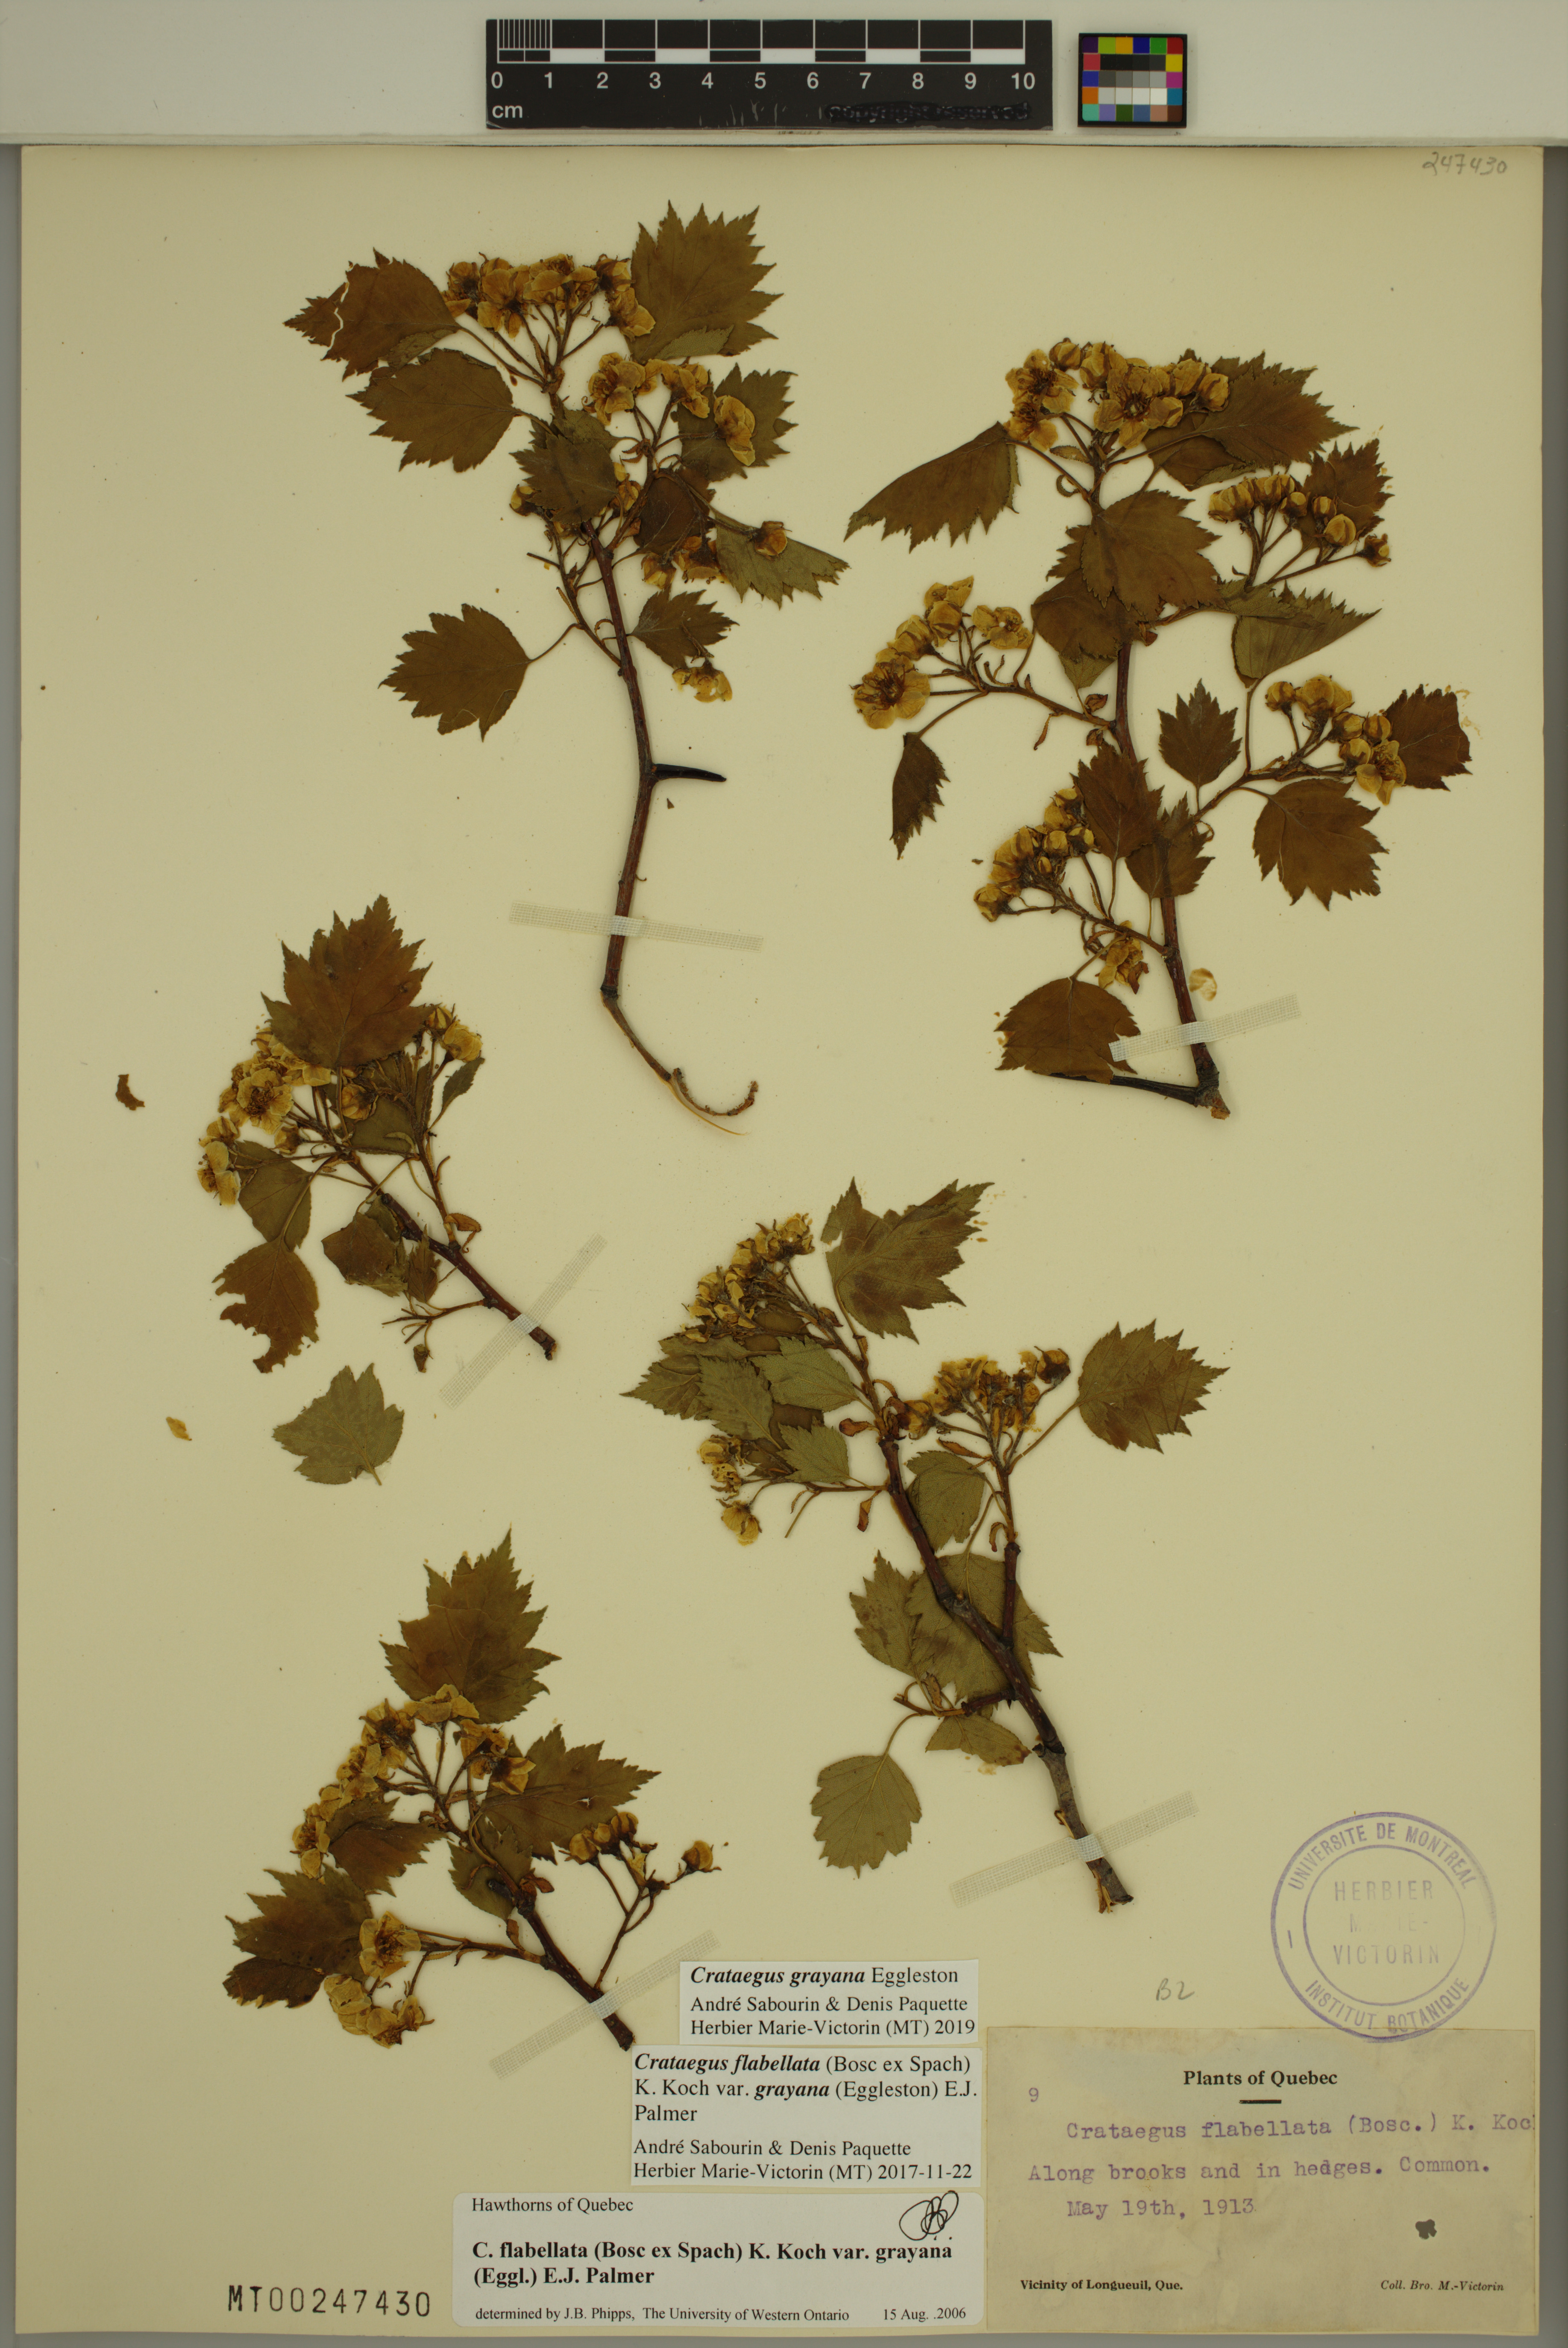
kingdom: Plantae
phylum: Tracheophyta
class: Magnoliopsida
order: Rosales
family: Rosaceae
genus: Crataegus
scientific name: Crataegus schuettei
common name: Schuette's hawthorn
